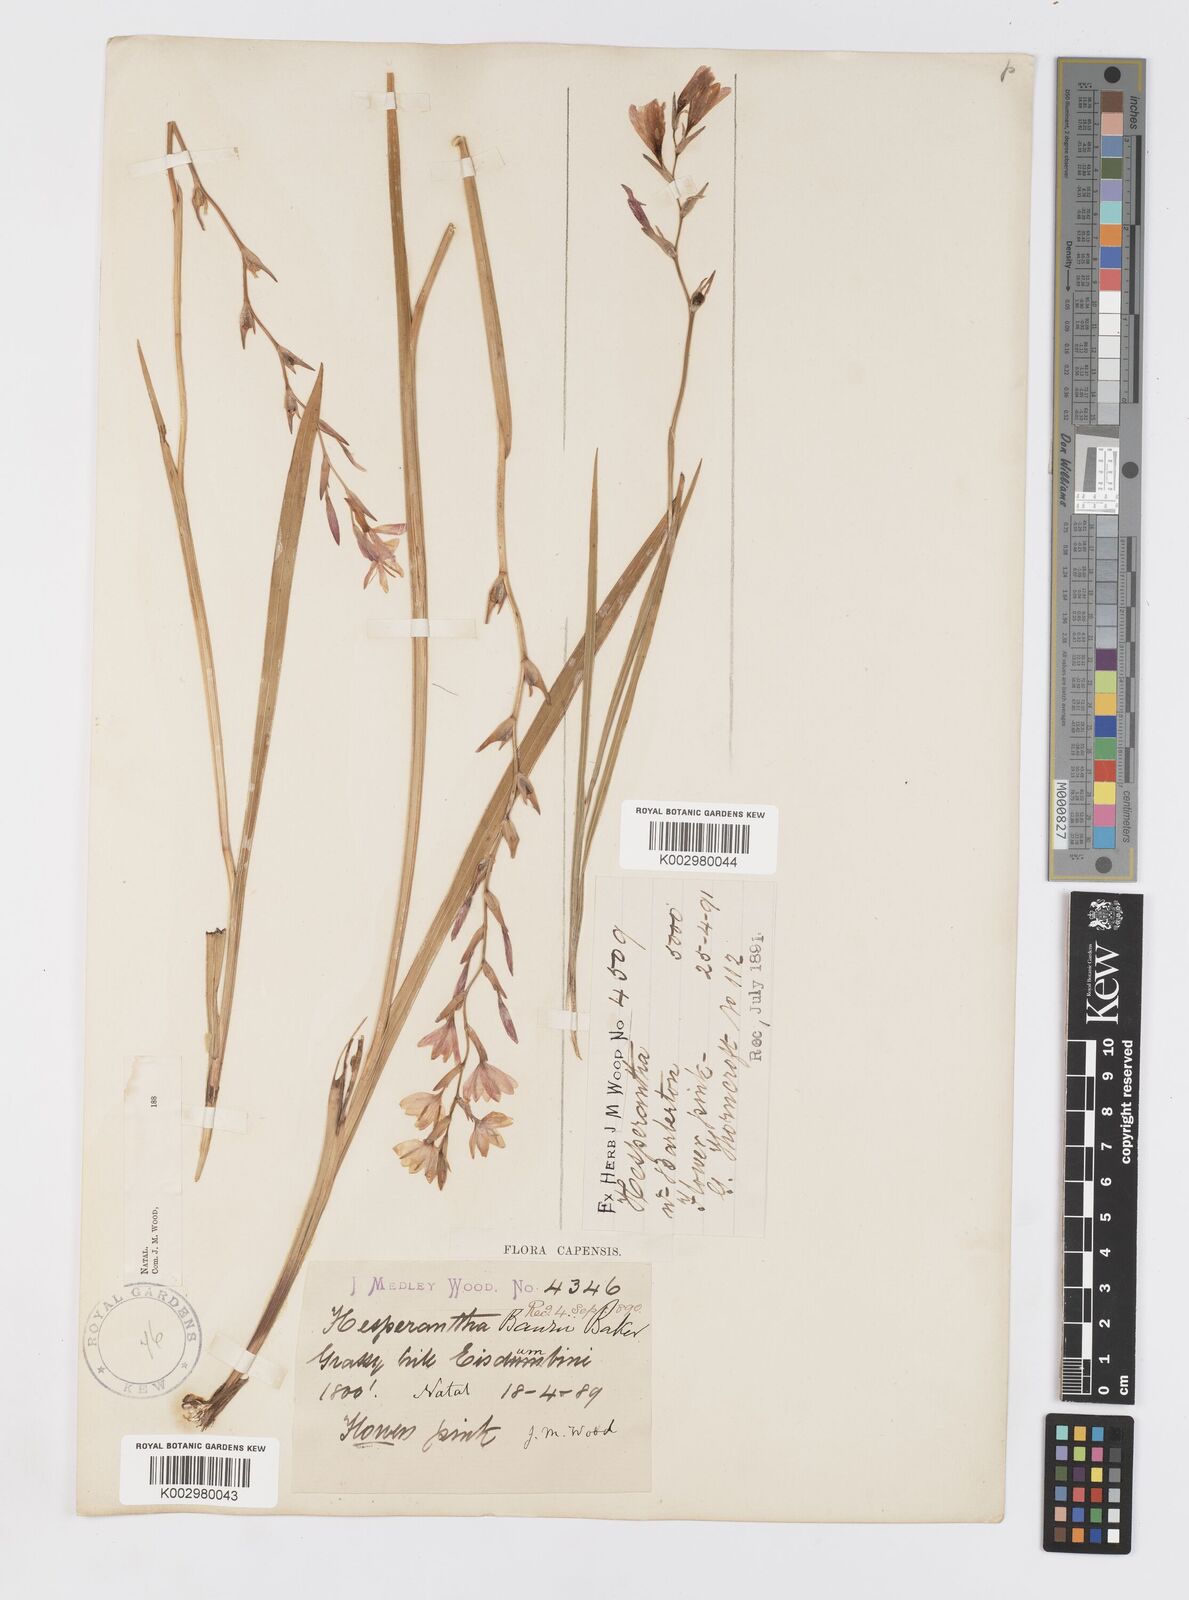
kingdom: Plantae
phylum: Tracheophyta
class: Liliopsida
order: Asparagales
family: Iridaceae
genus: Hesperantha
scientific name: Hesperantha baurii
